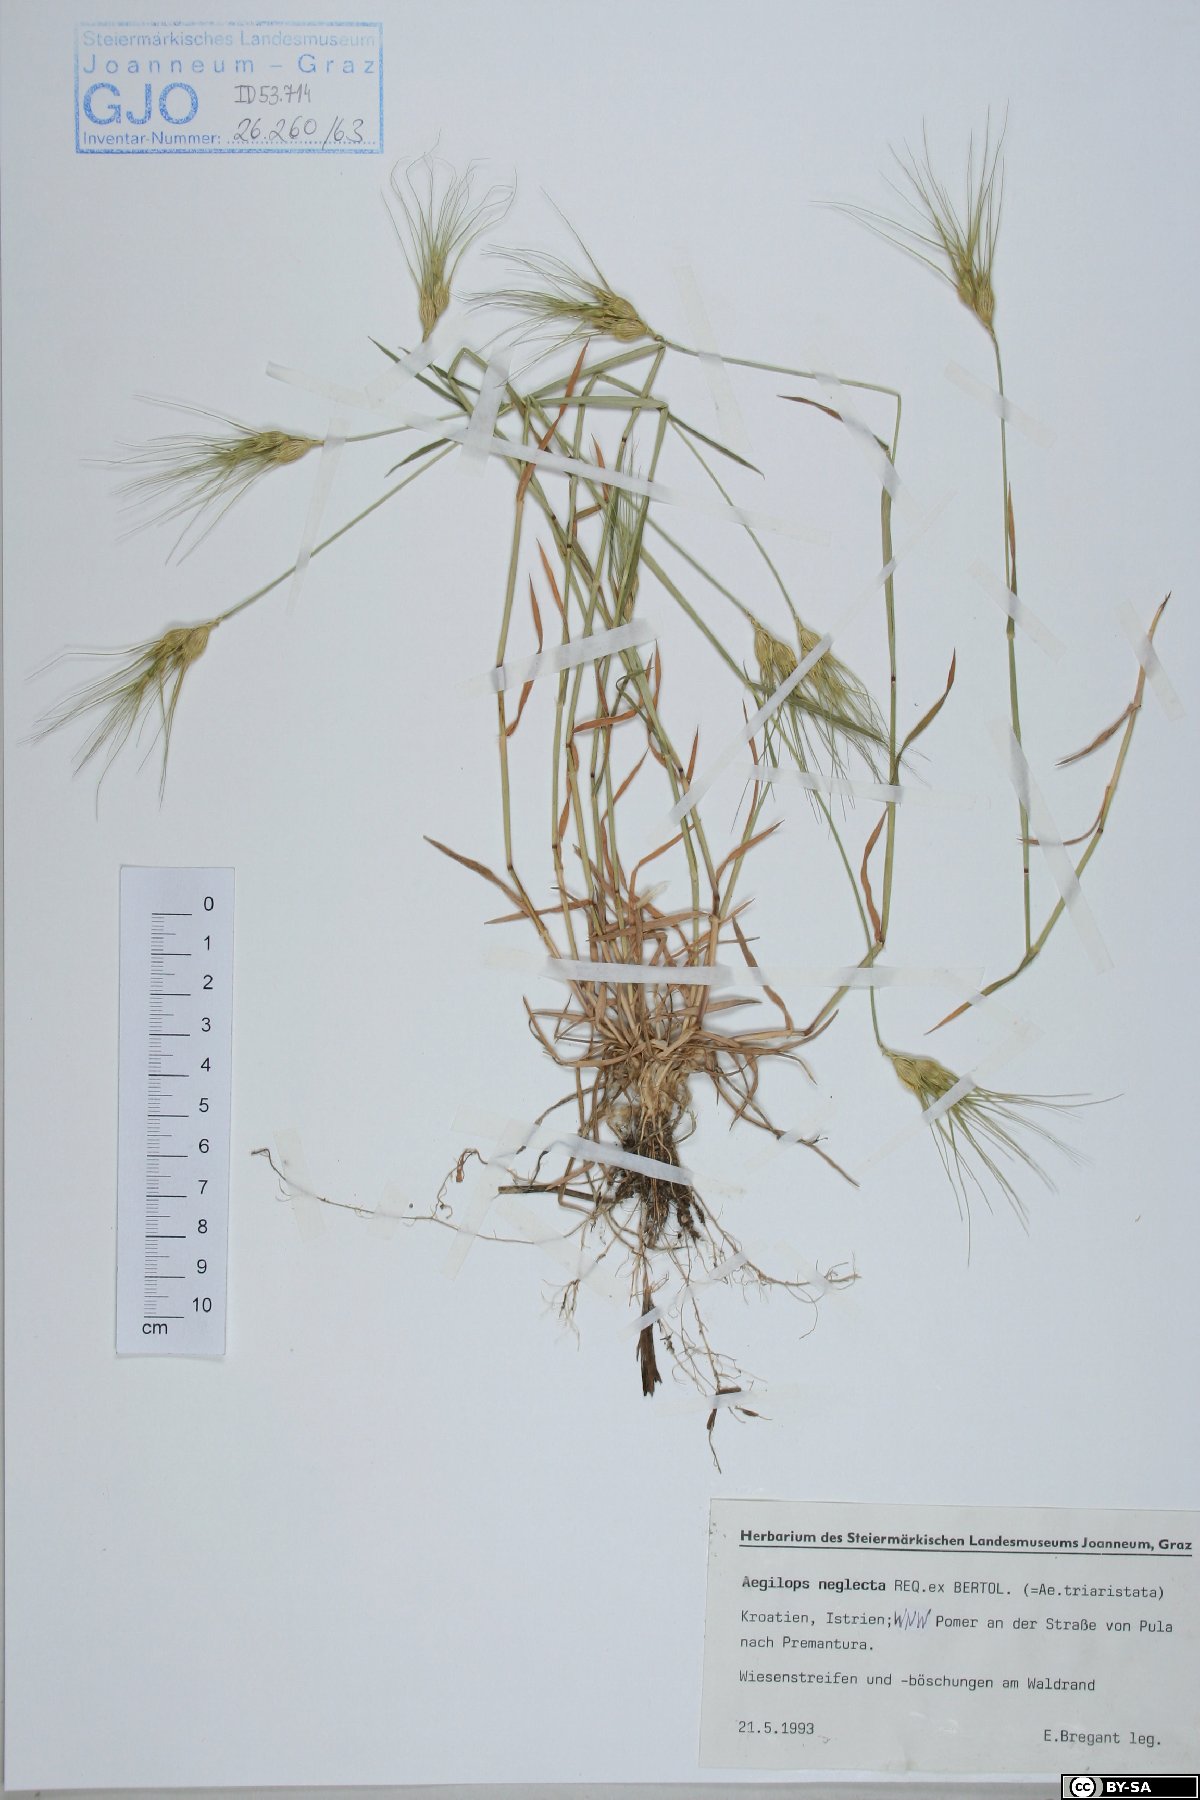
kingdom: Plantae
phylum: Tracheophyta
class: Liliopsida
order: Poales
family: Poaceae
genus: Aegilops
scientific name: Aegilops neglecta
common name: Three-awn goat grass
